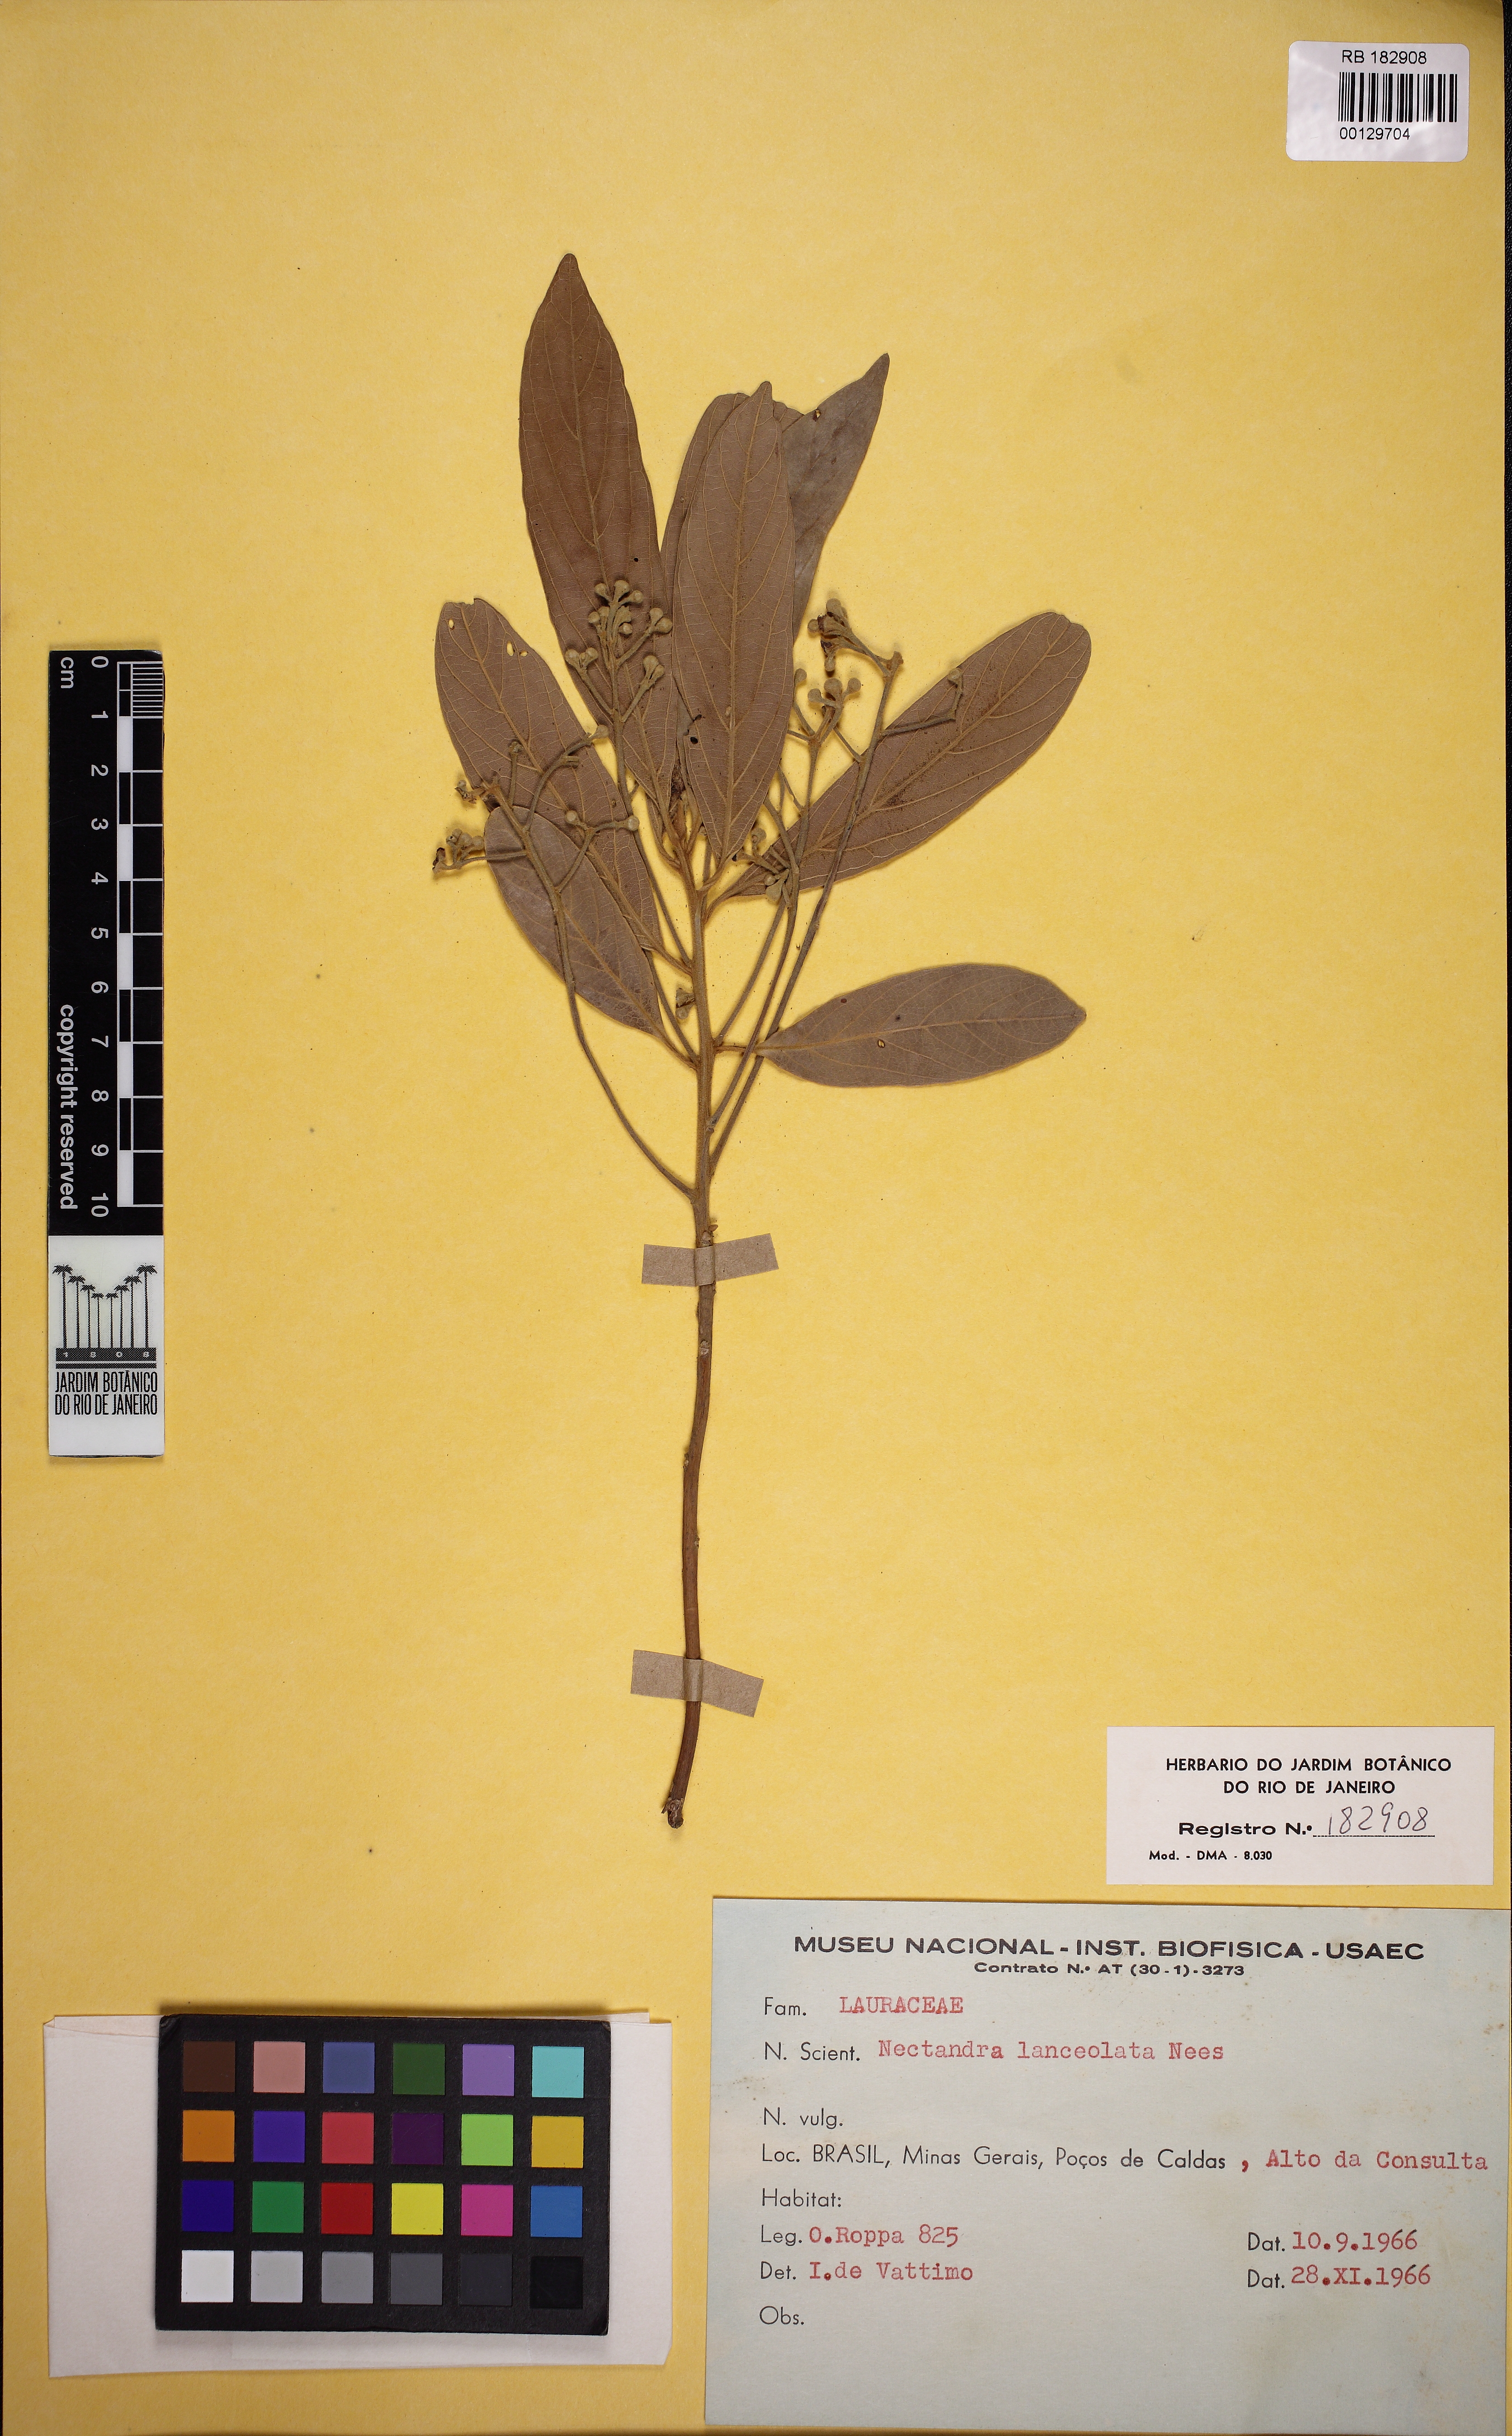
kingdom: Plantae
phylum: Tracheophyta
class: Magnoliopsida
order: Laurales
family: Lauraceae
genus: Nectandra
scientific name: Nectandra lanceolata
